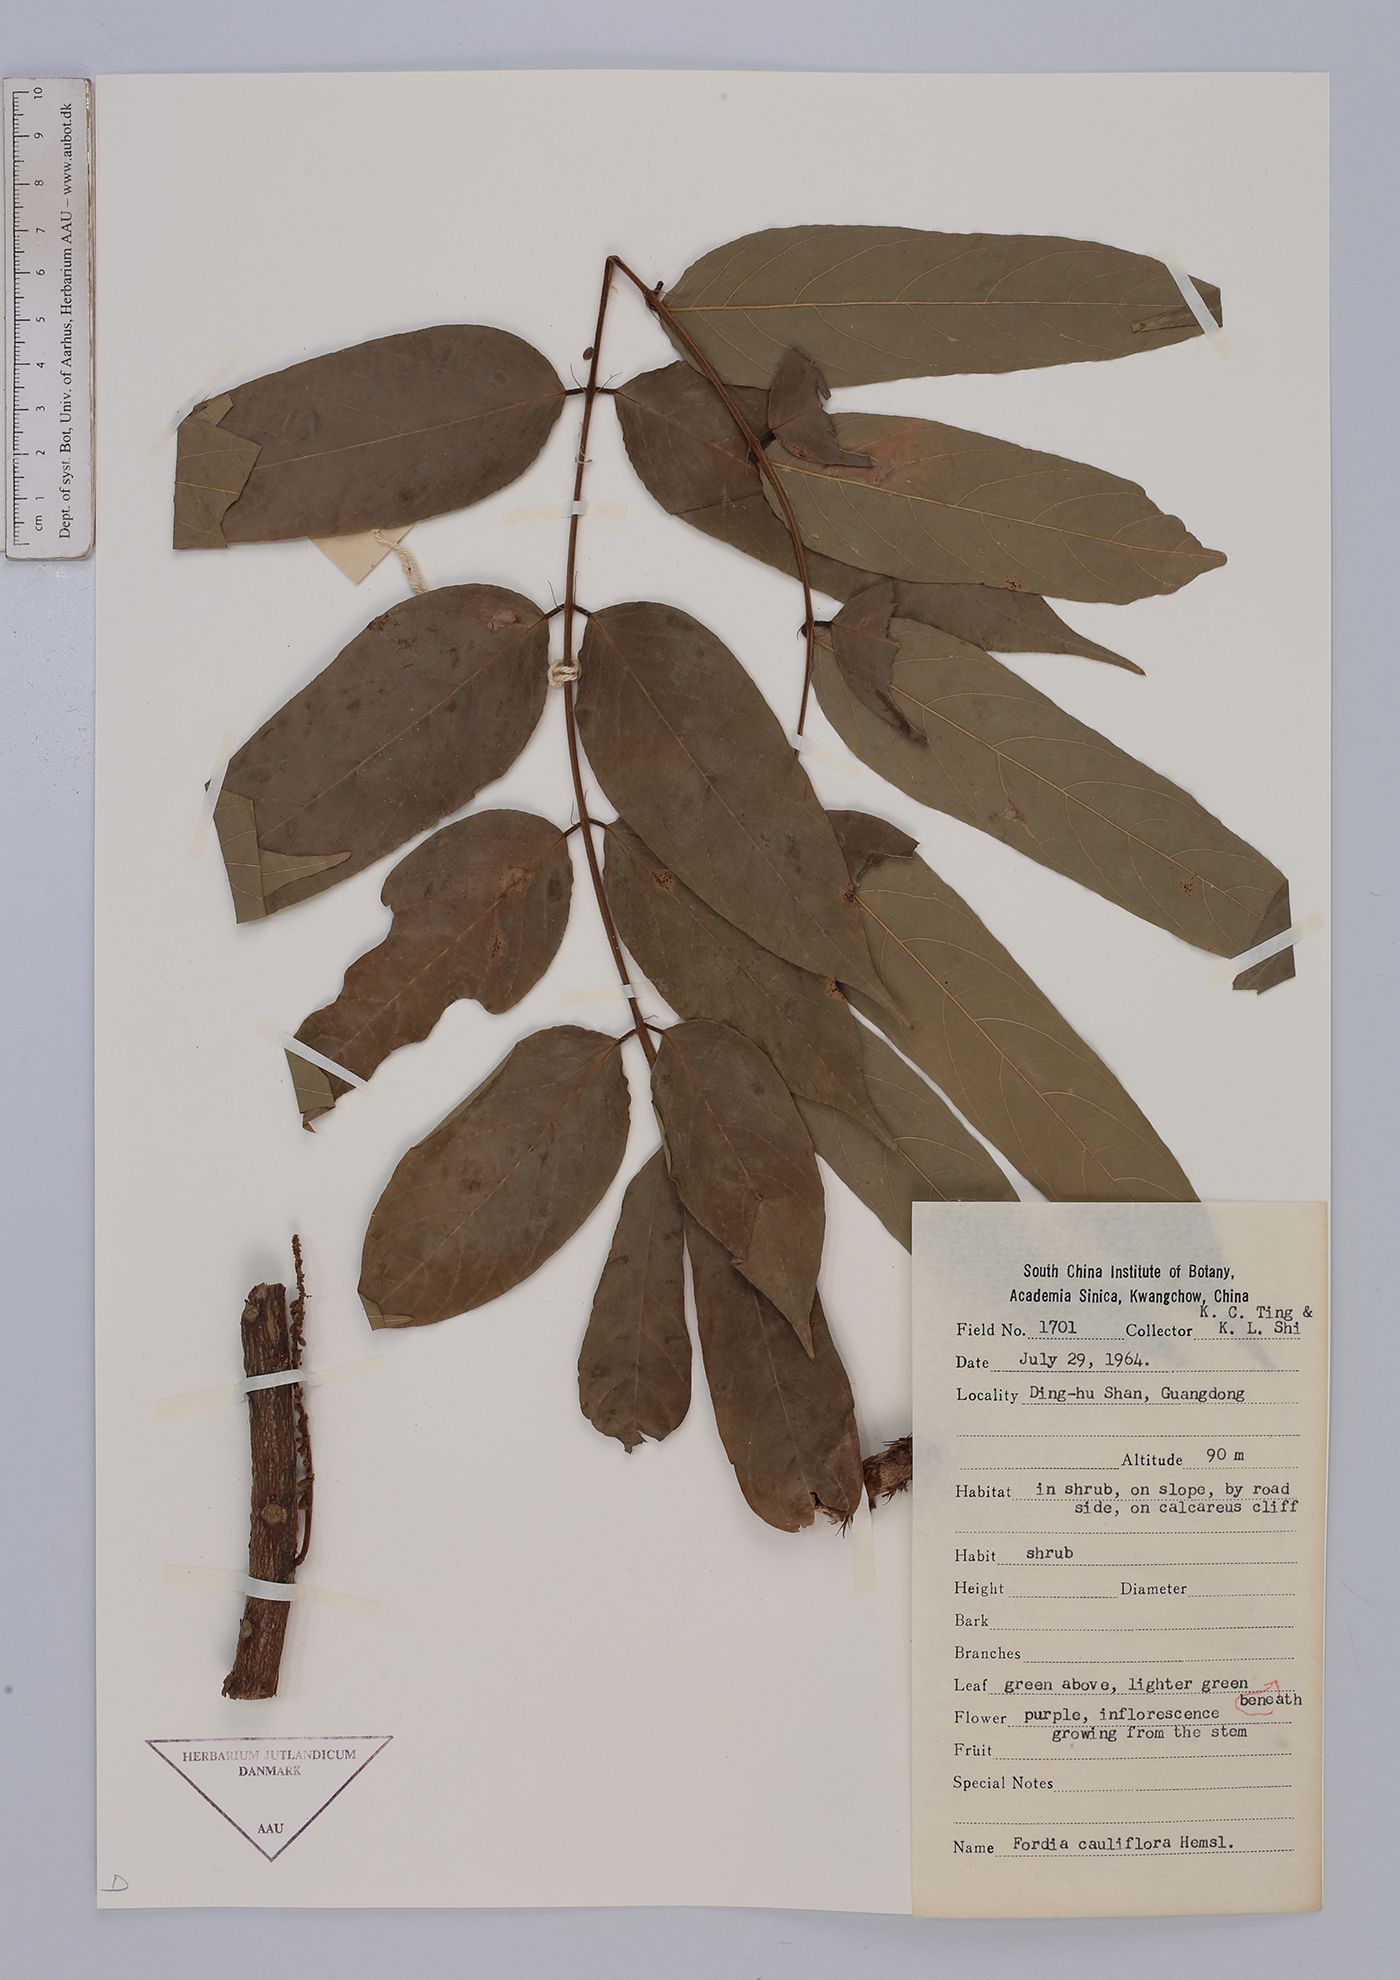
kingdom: Plantae
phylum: Tracheophyta
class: Magnoliopsida
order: Fabales
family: Fabaceae
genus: Fordia
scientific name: Fordia cauliflora
